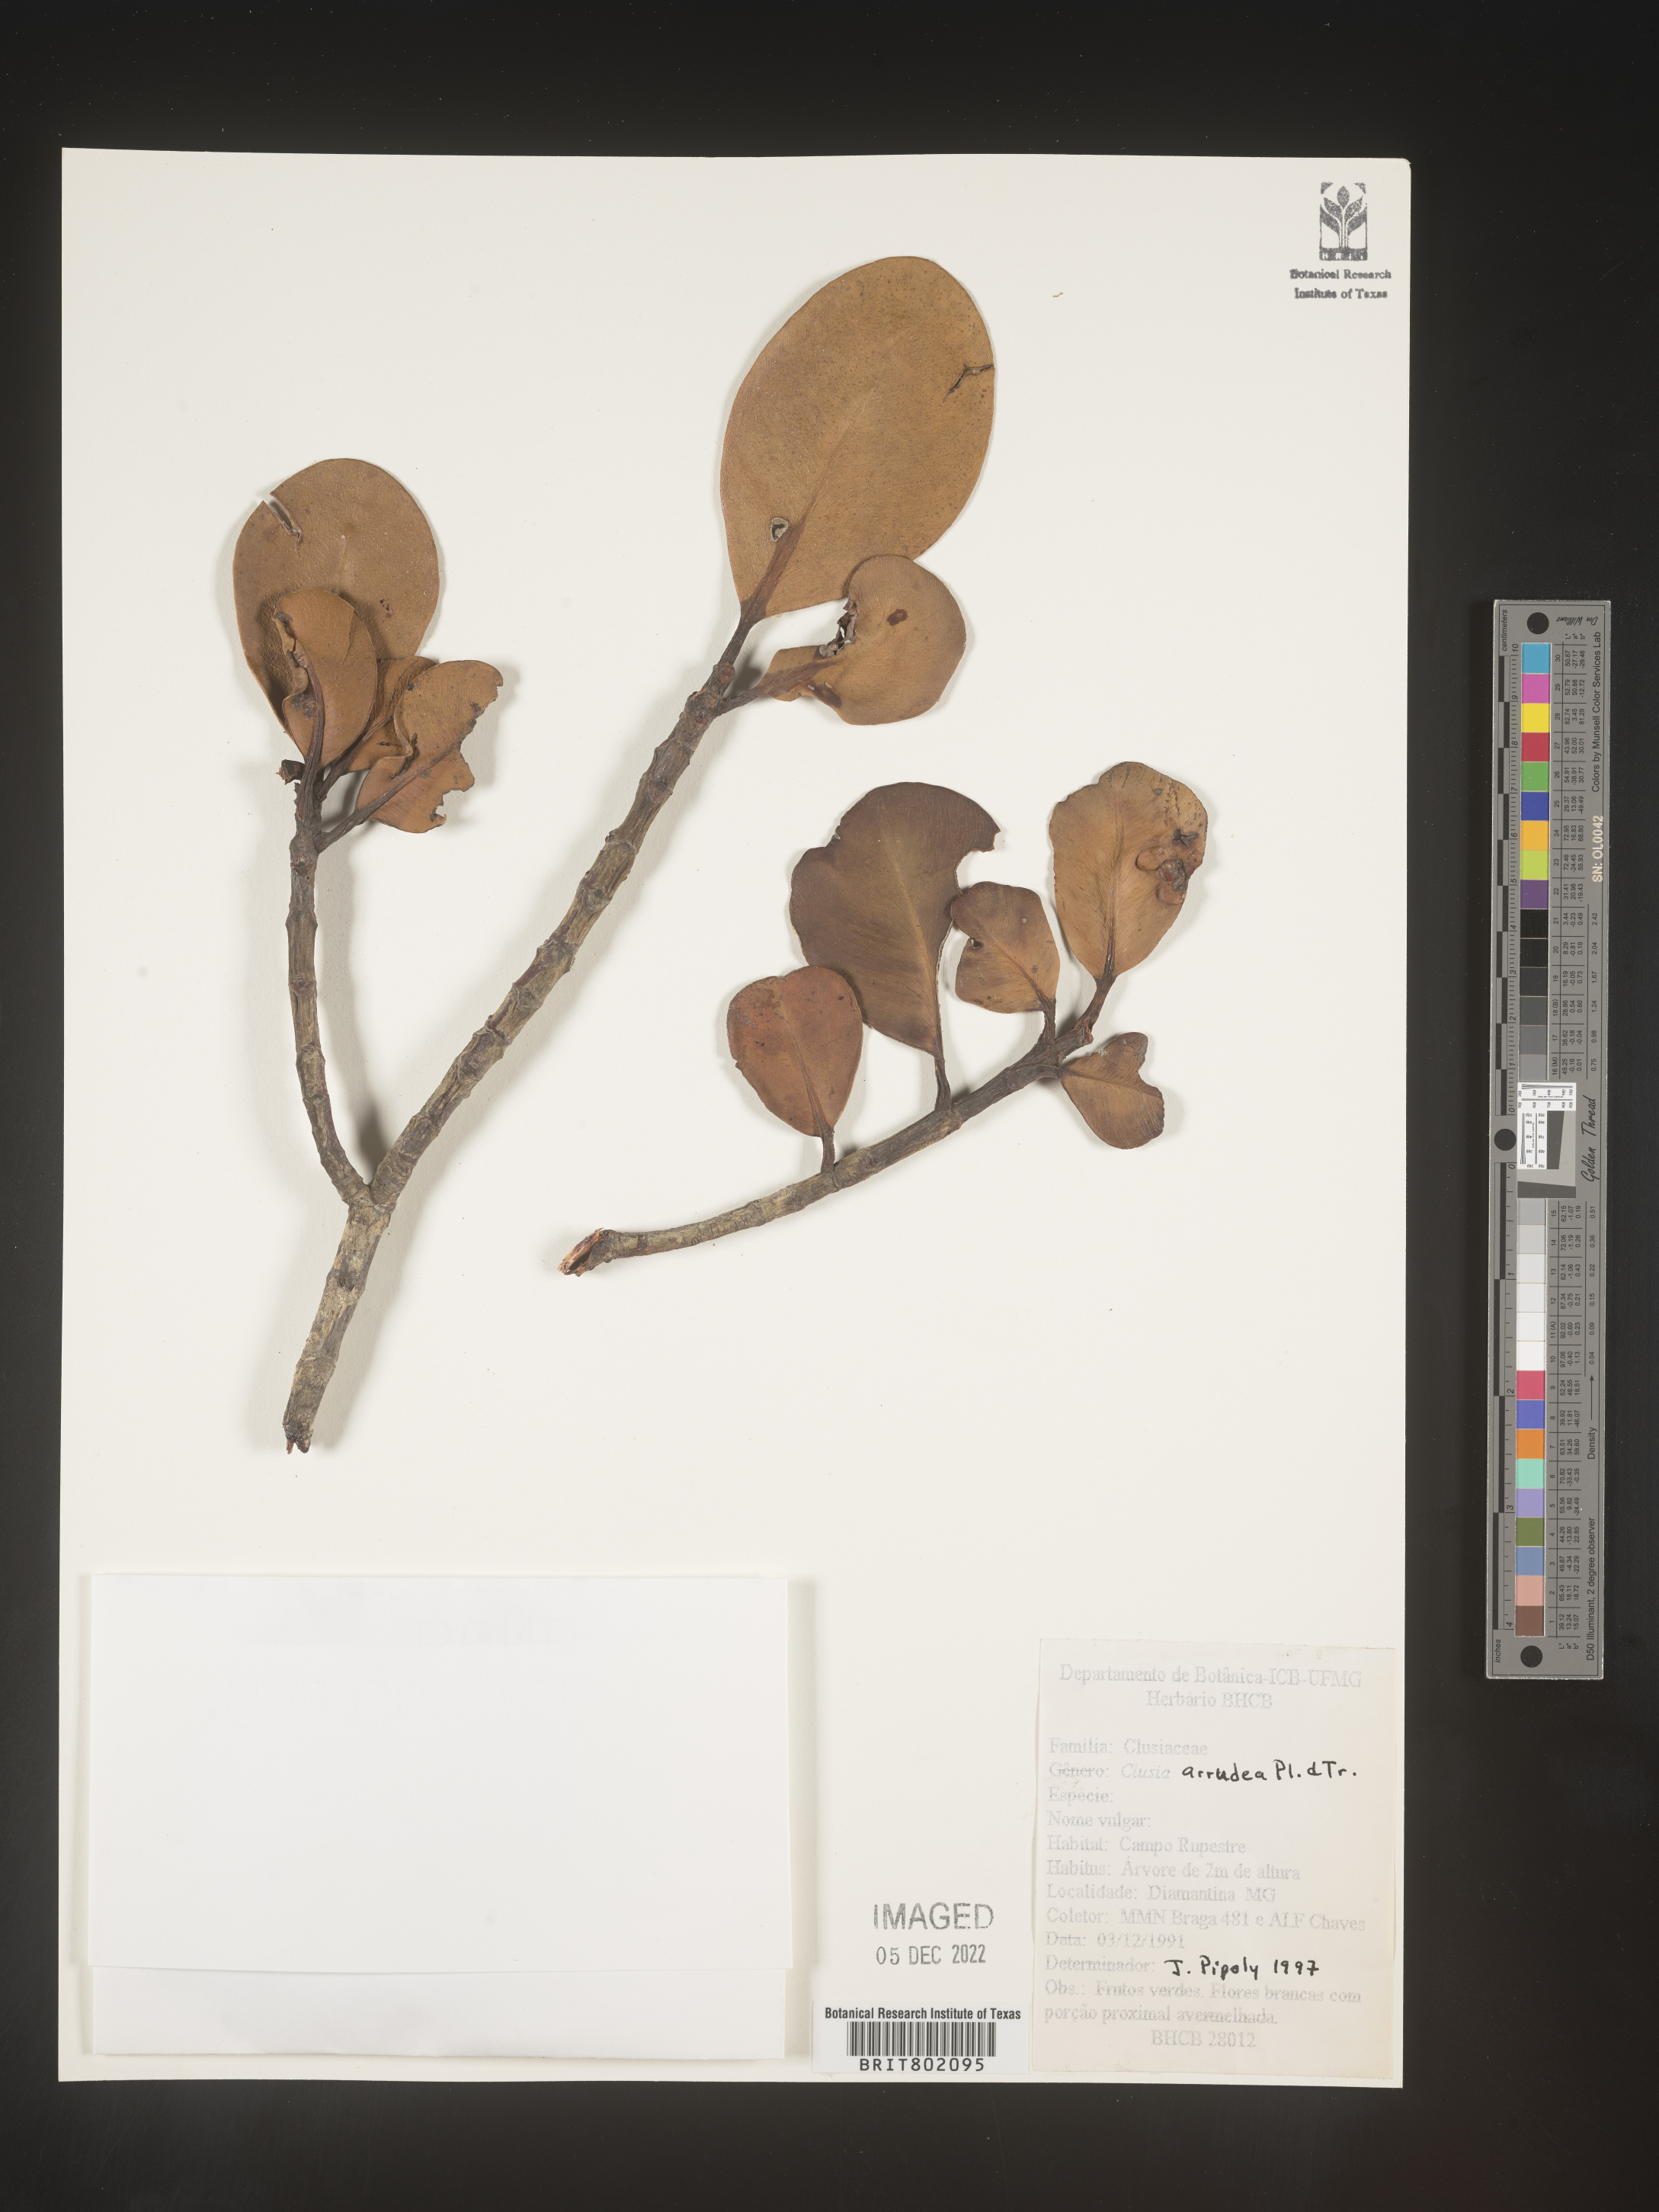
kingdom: Plantae
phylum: Tracheophyta
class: Magnoliopsida
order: Malpighiales
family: Clusiaceae
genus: Clusia
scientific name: Clusia mexiae
